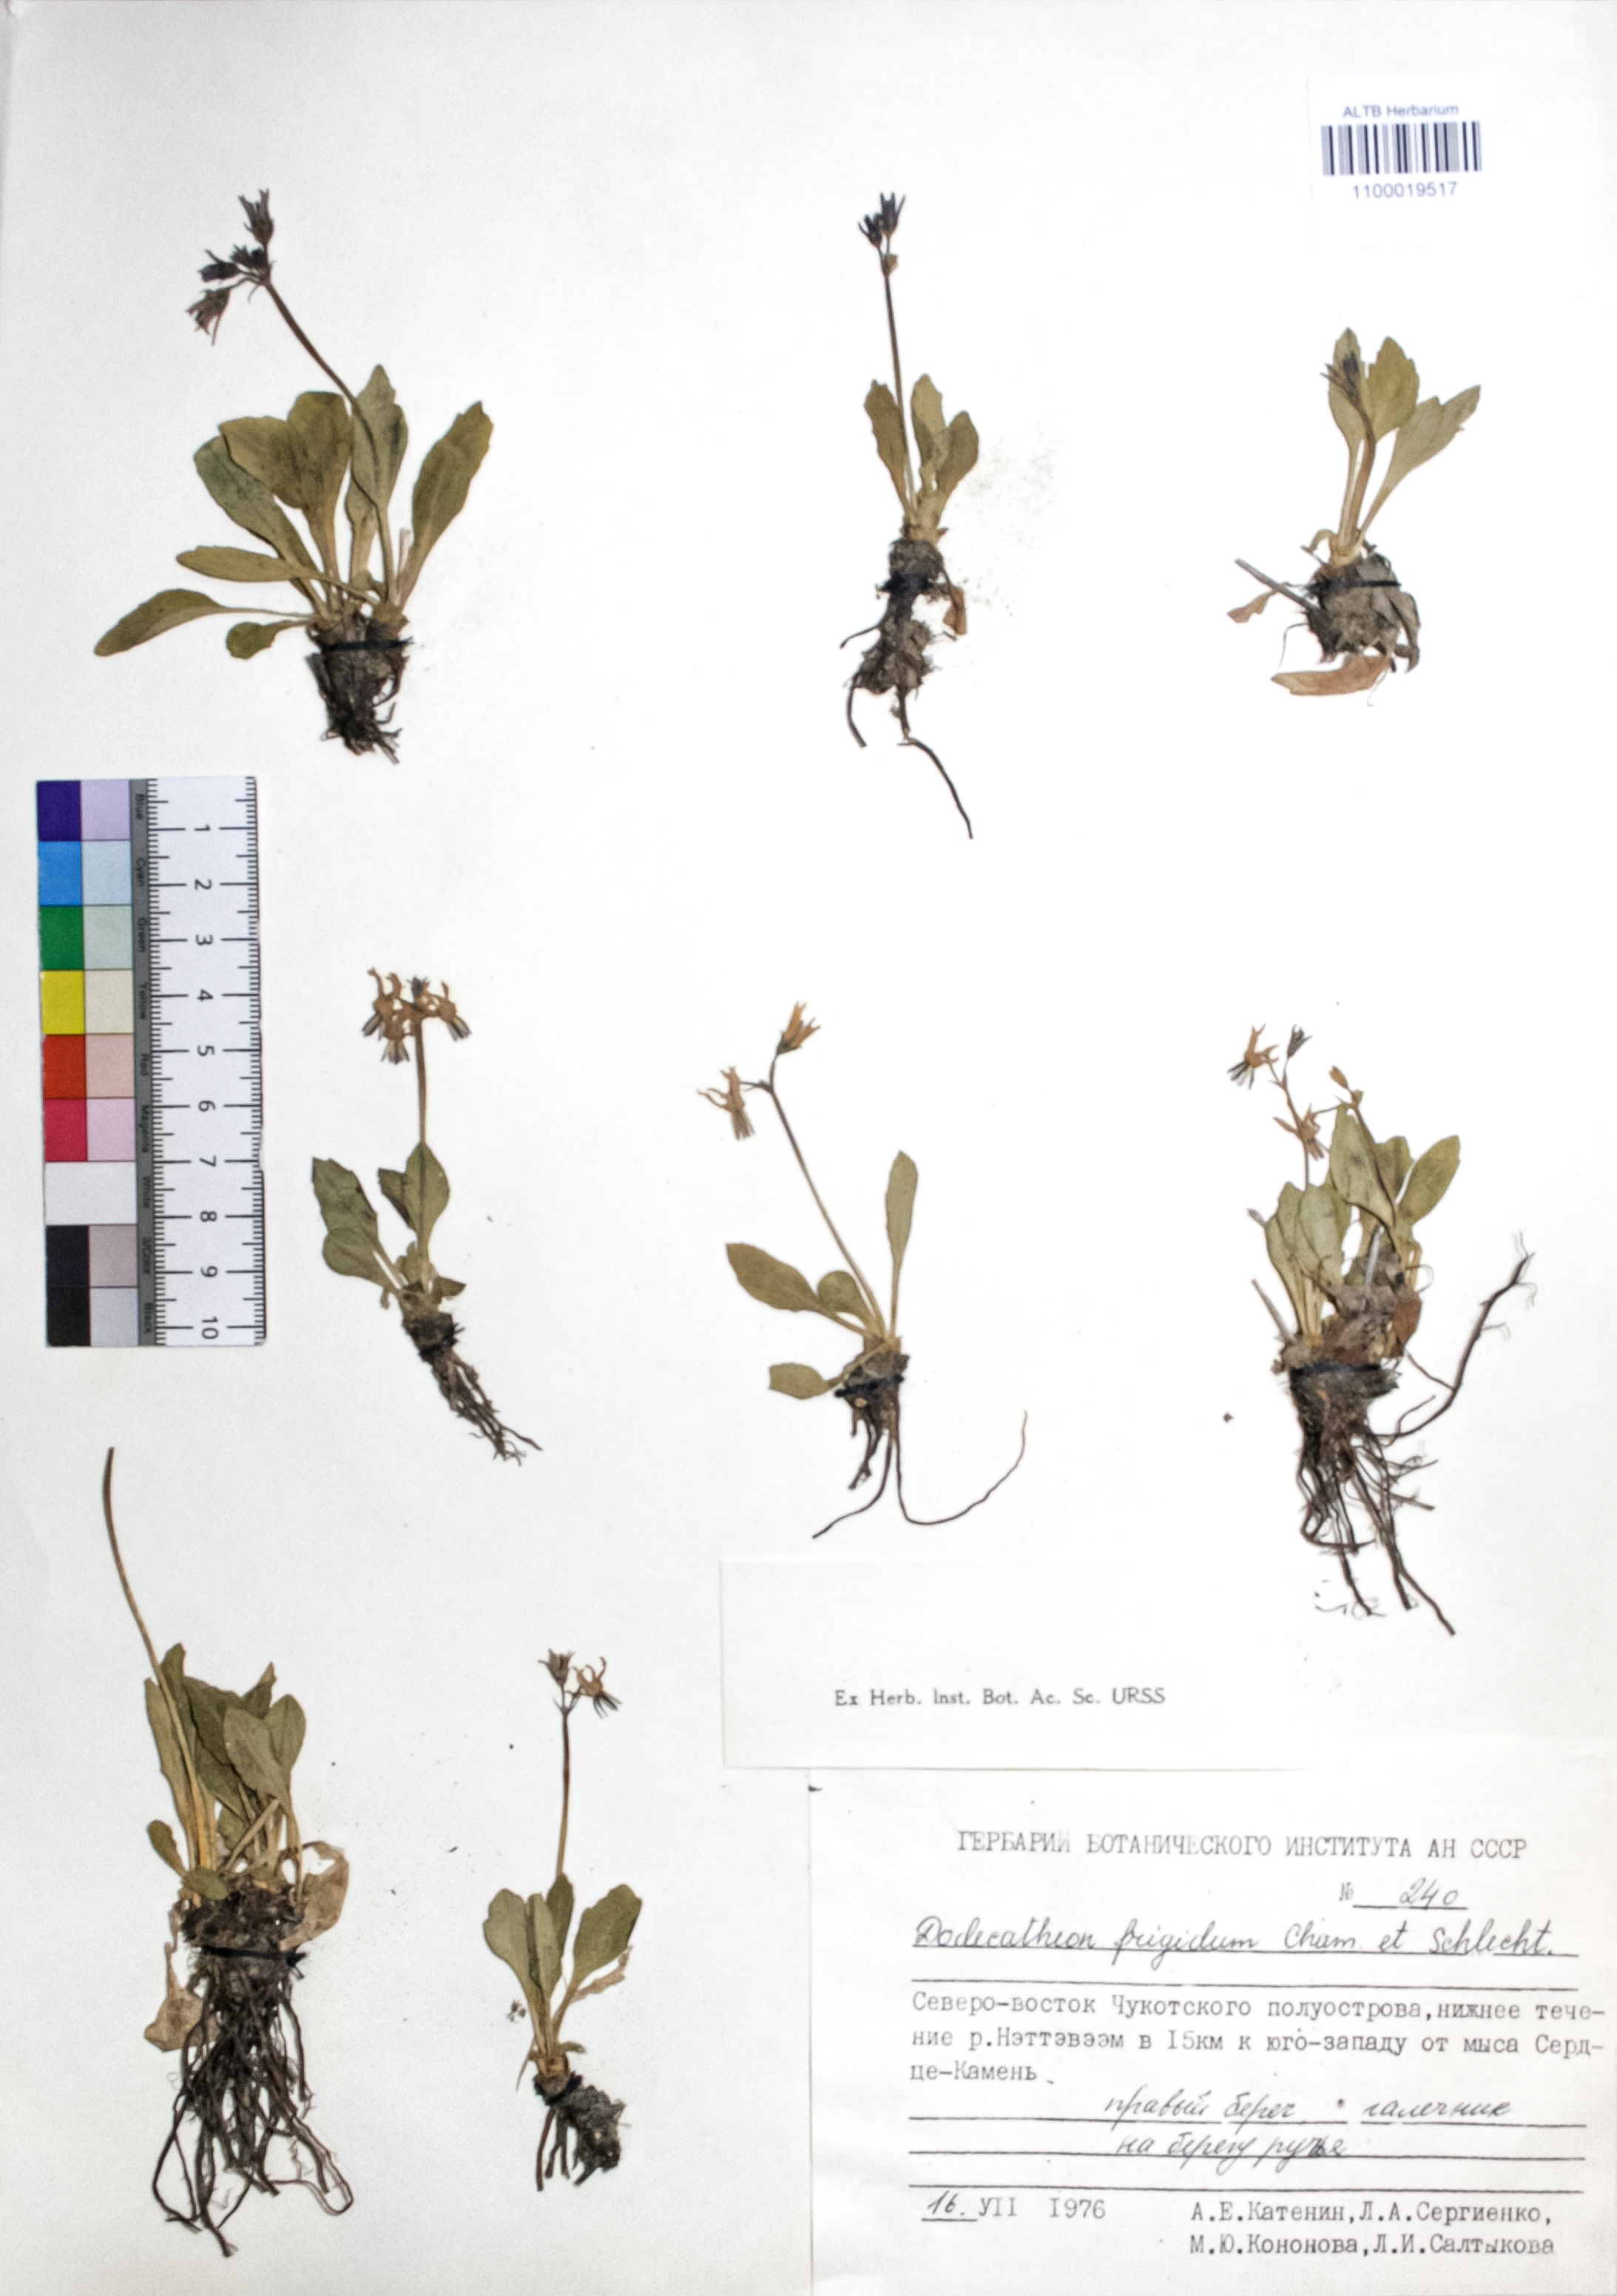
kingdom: Plantae
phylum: Tracheophyta
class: Magnoliopsida
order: Ericales
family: Primulaceae
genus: Dodecatheon
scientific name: Dodecatheon frigidum
